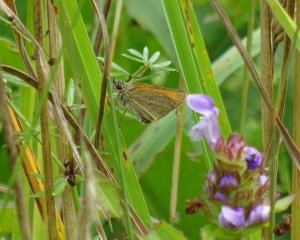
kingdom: Animalia
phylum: Arthropoda
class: Insecta
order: Lepidoptera
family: Hesperiidae
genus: Thymelicus
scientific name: Thymelicus lineola
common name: European Skipper
